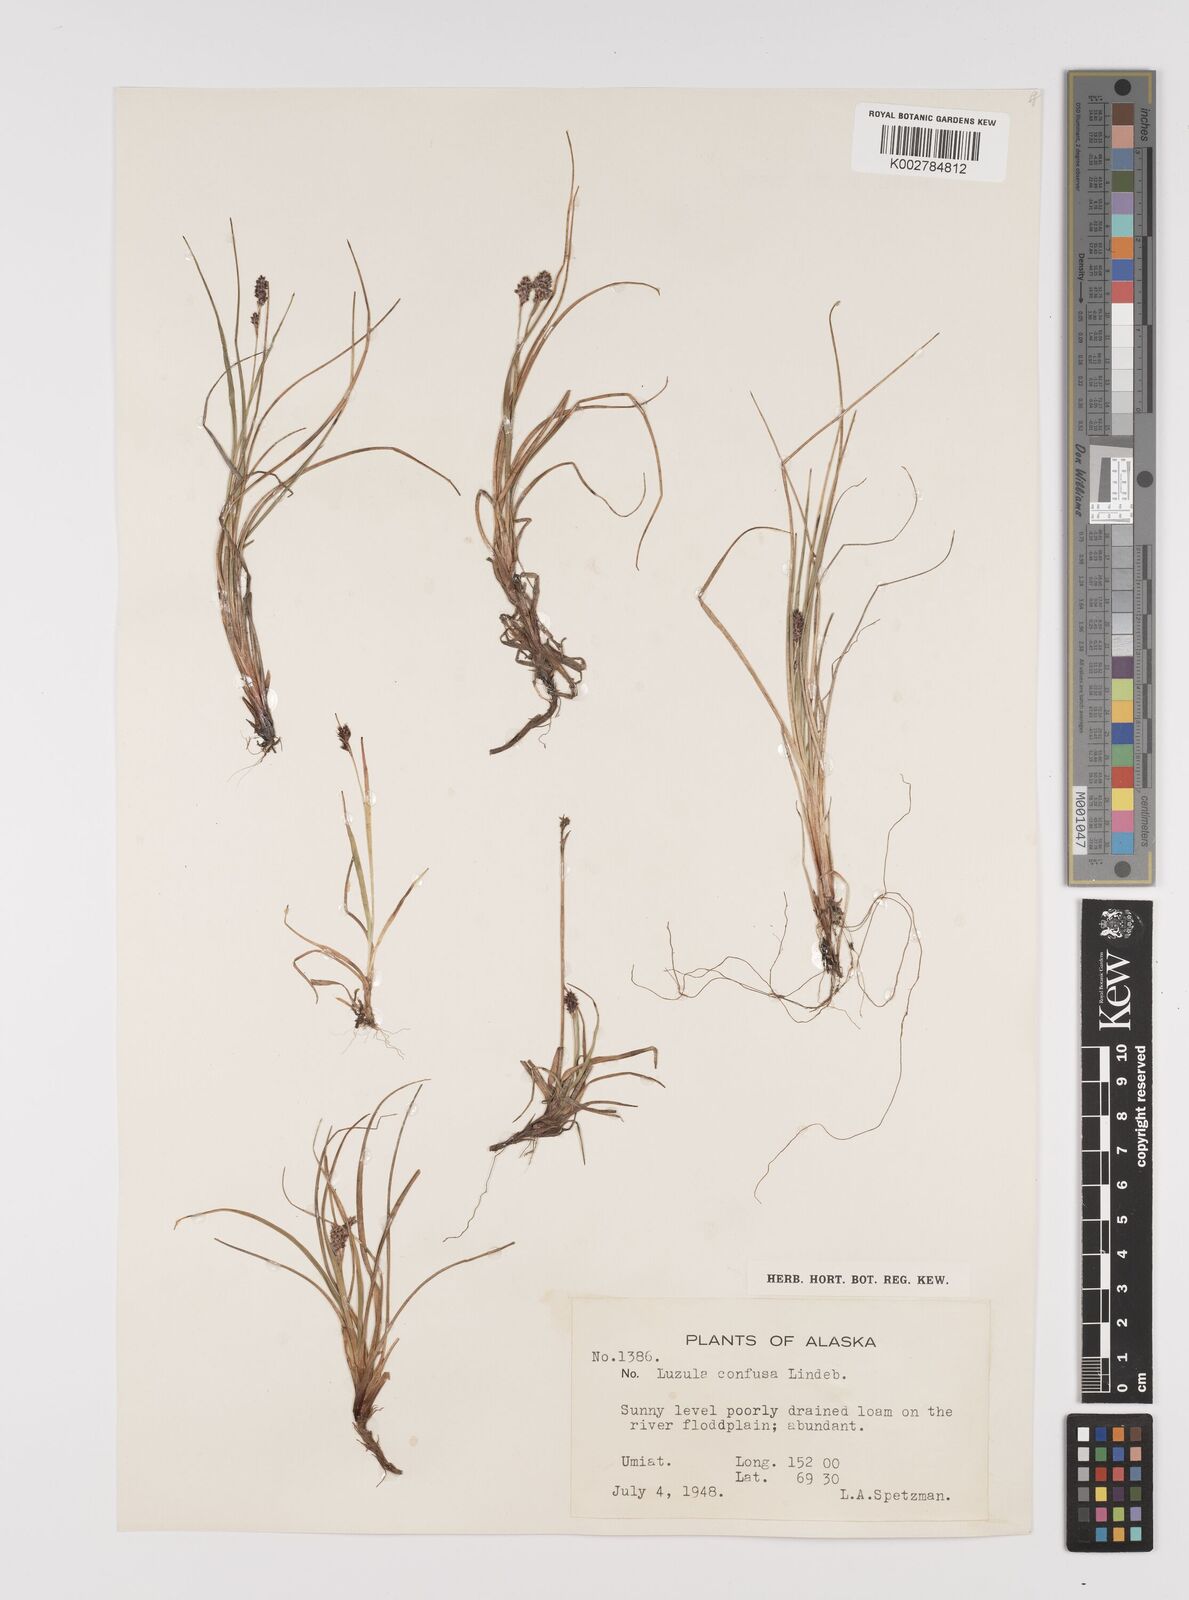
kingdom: Plantae
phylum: Tracheophyta
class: Liliopsida
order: Poales
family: Juncaceae
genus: Luzula
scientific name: Luzula confusa
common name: Northern wood rush
